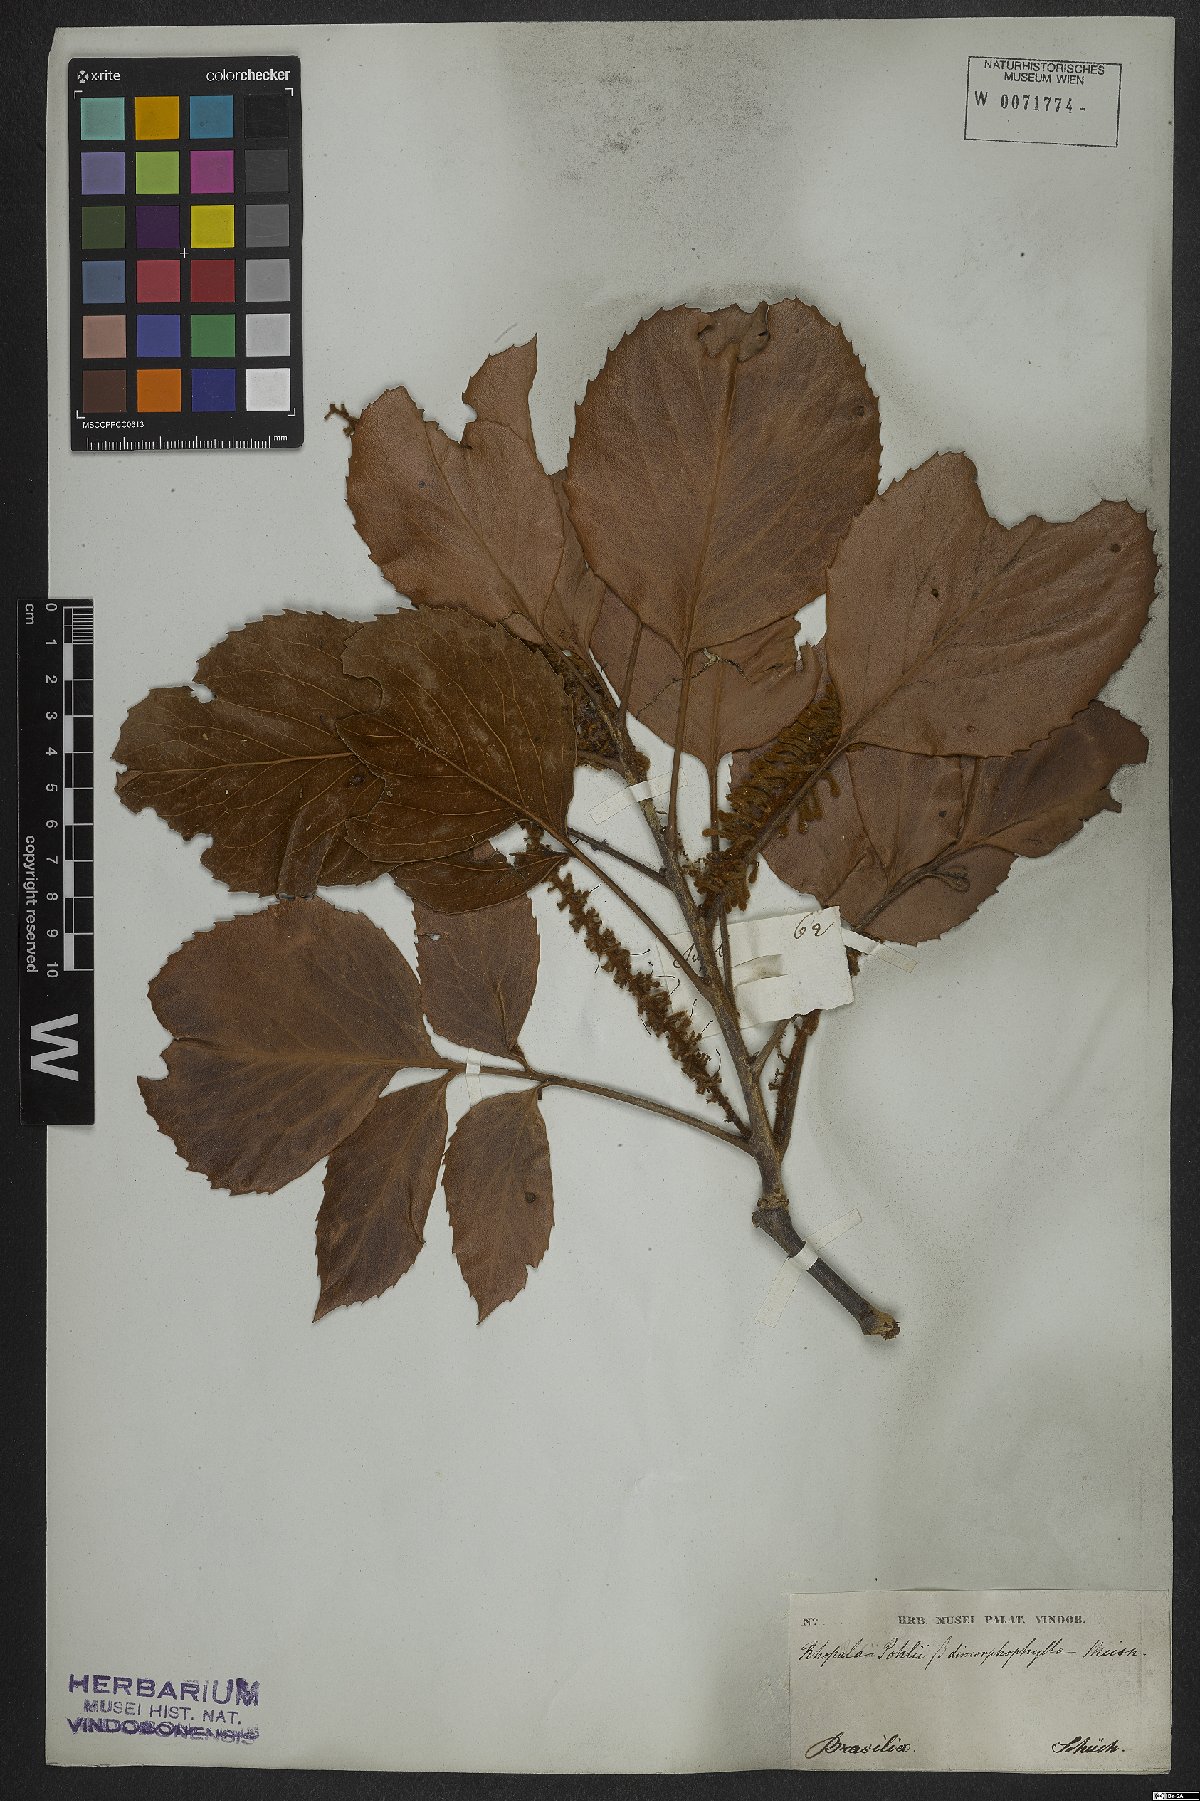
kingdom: Plantae
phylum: Tracheophyta
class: Magnoliopsida
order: Proteales
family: Proteaceae
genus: Roupala
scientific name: Roupala montana
